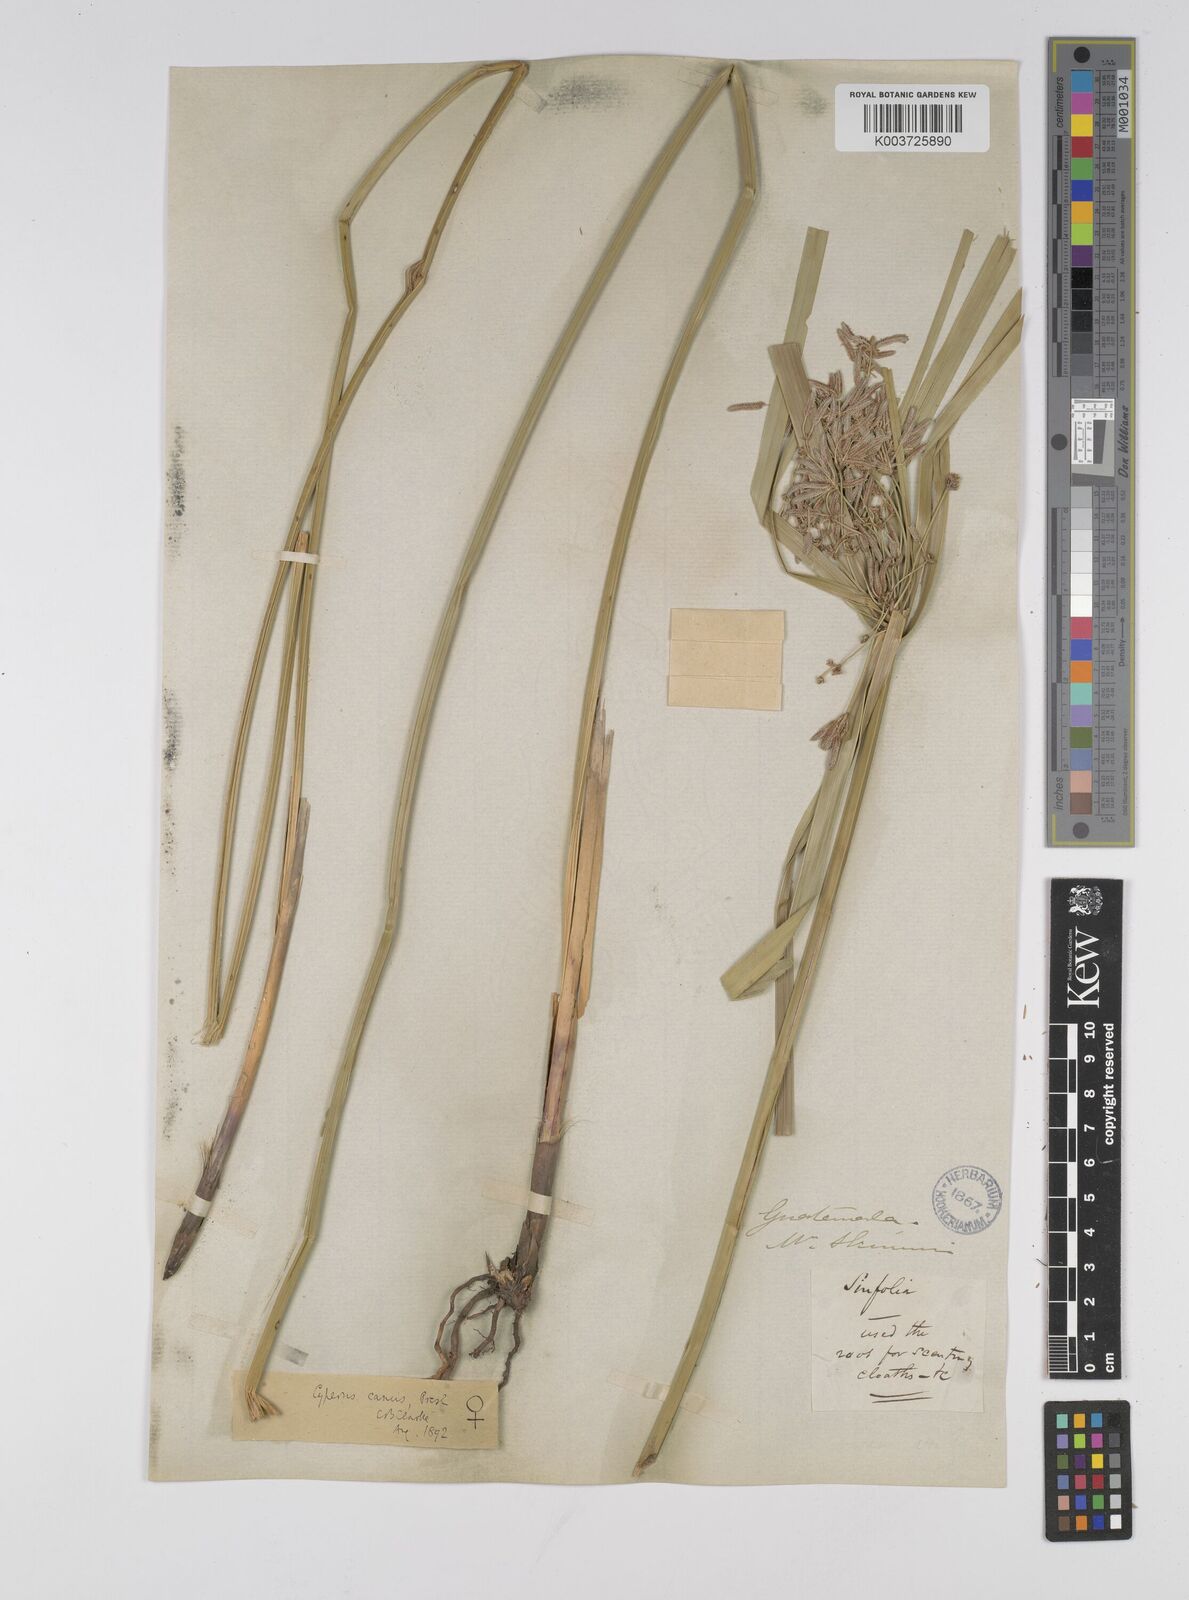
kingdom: Plantae
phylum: Tracheophyta
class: Liliopsida
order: Poales
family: Cyperaceae
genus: Cyperus
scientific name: Cyperus canus
